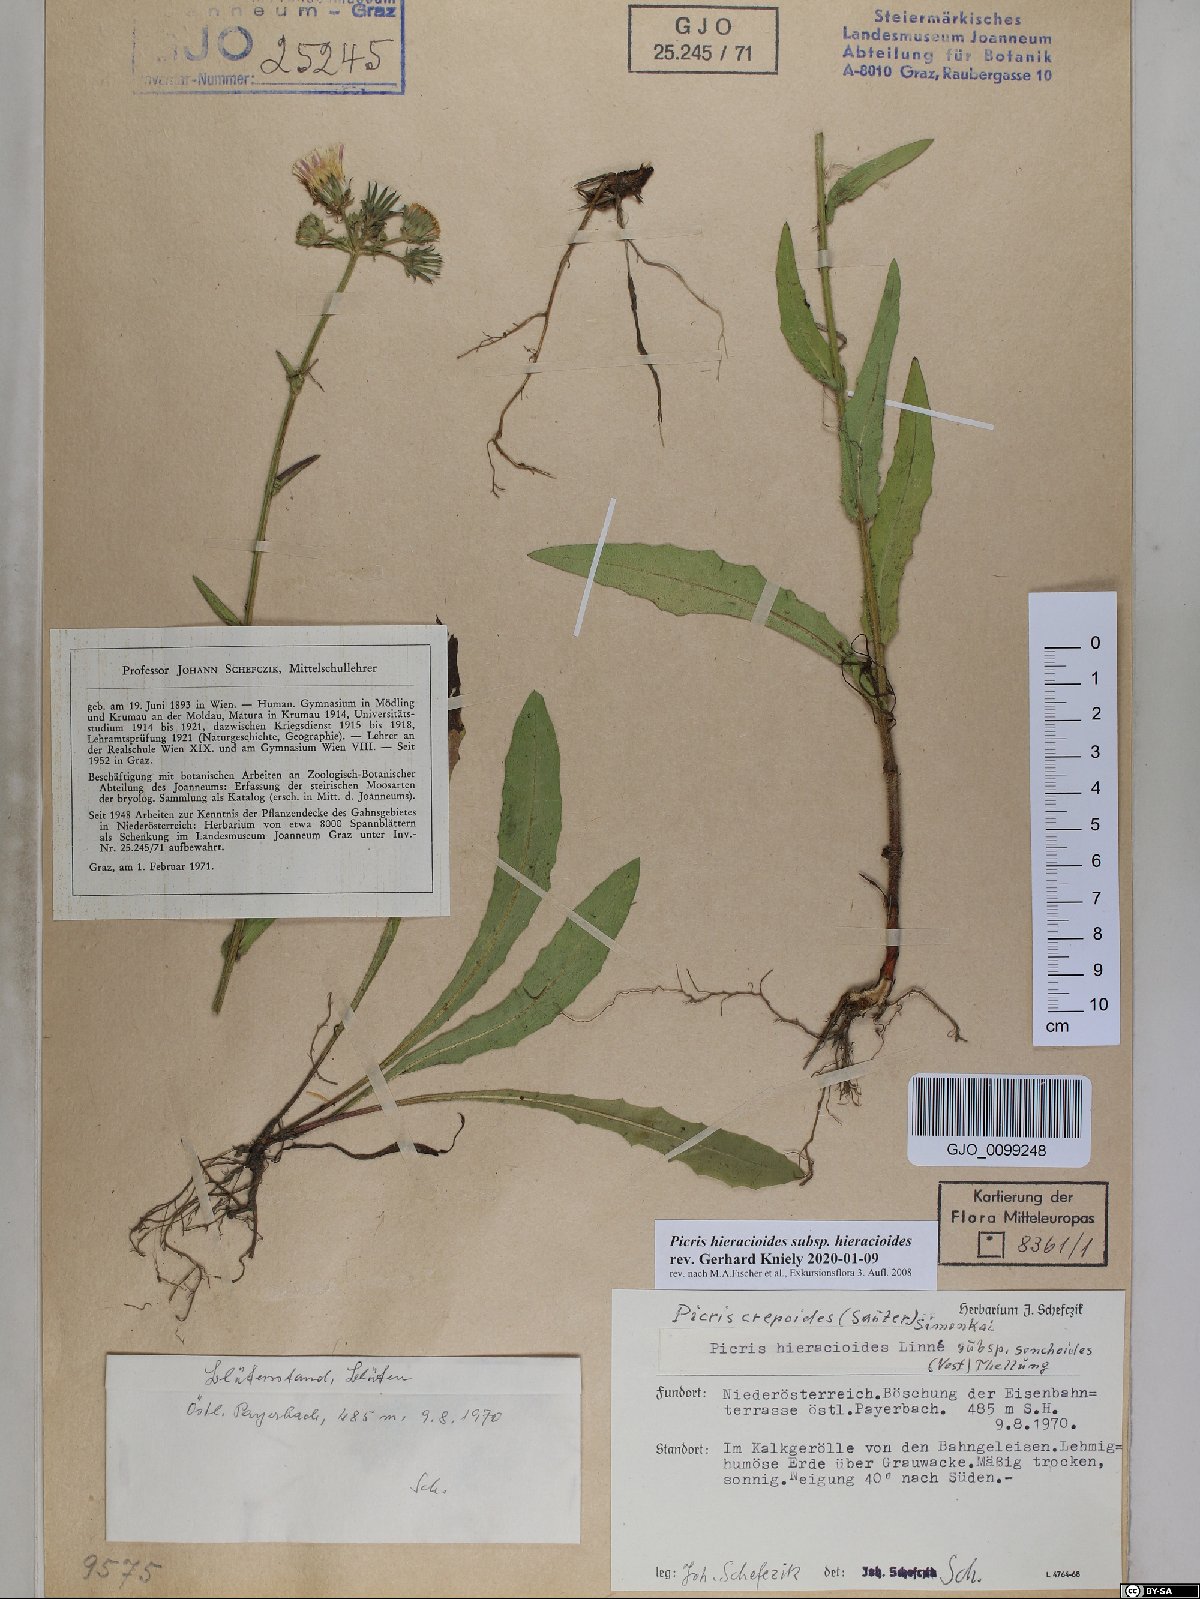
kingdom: Plantae
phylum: Tracheophyta
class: Magnoliopsida
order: Asterales
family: Asteraceae
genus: Picris
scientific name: Picris hieracioides
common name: Hawkweed oxtongue
